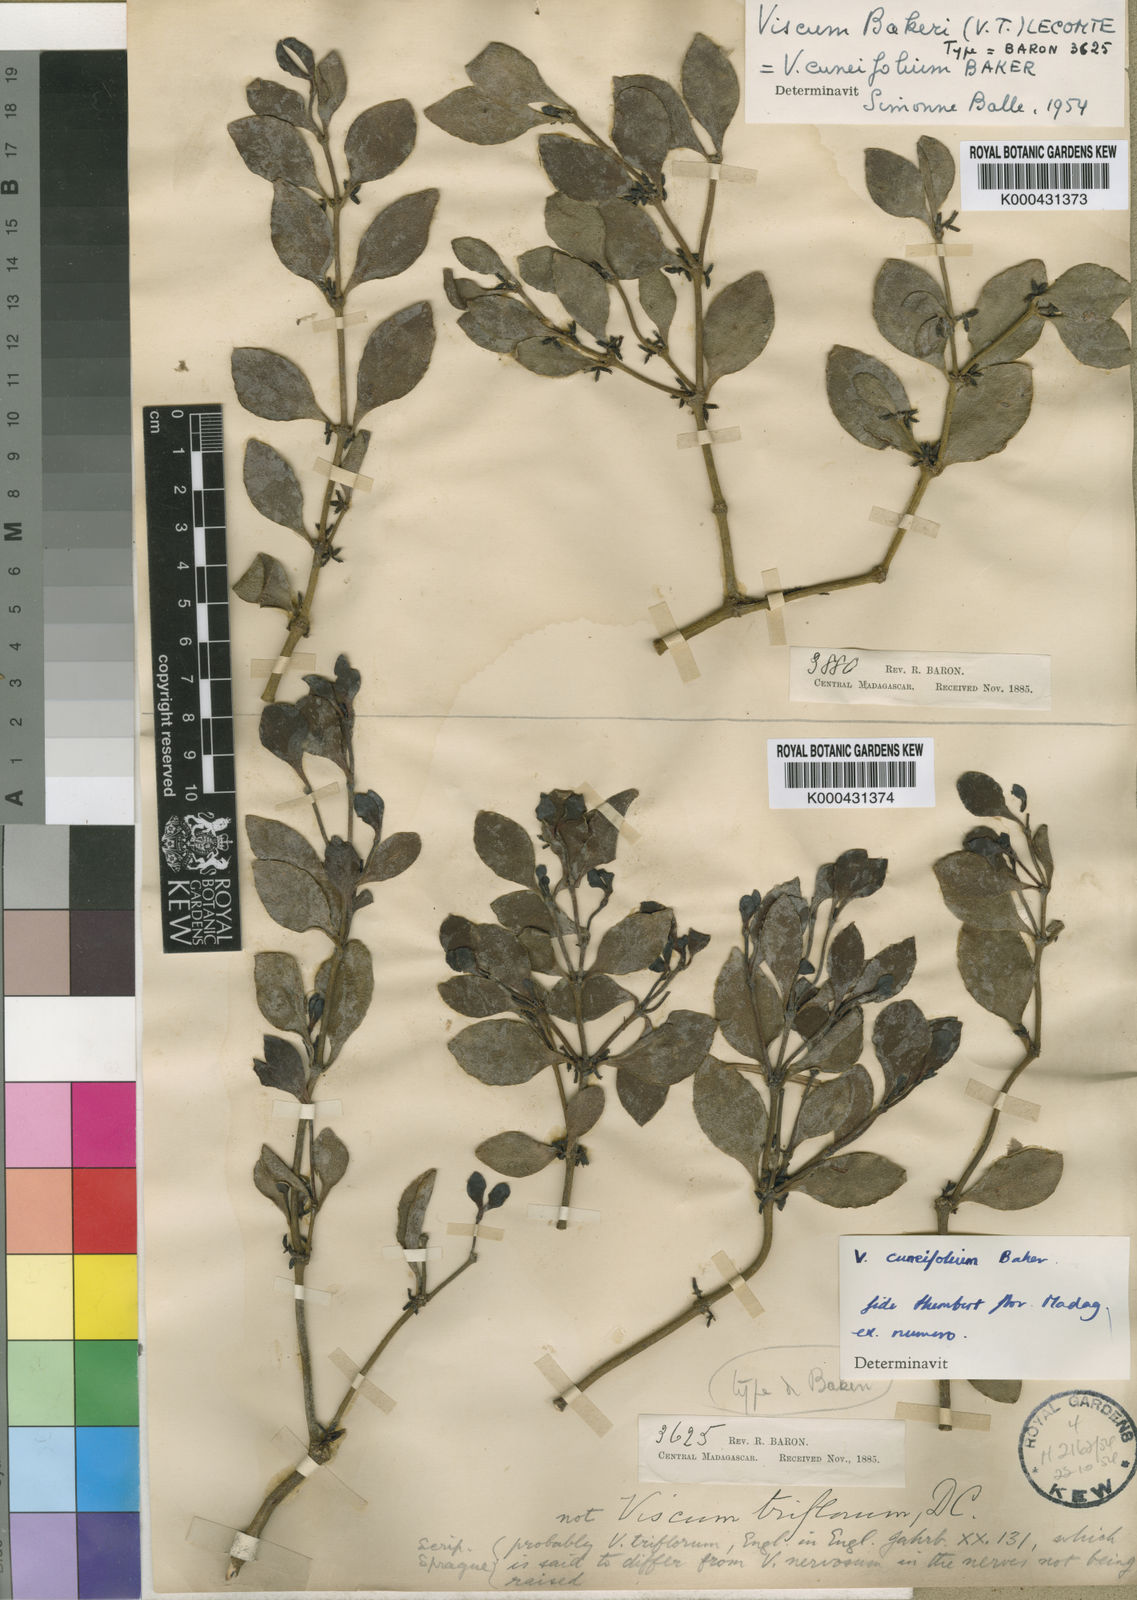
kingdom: Plantae
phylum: Tracheophyta
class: Magnoliopsida
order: Santalales
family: Viscaceae
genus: Viscum
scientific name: Viscum cuneifolium
